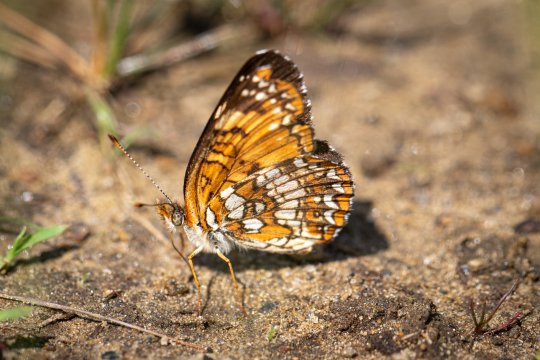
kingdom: Animalia
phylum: Arthropoda
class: Insecta
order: Lepidoptera
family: Nymphalidae
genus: Chlosyne
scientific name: Chlosyne harrisii
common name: Harris's Checkerspot
